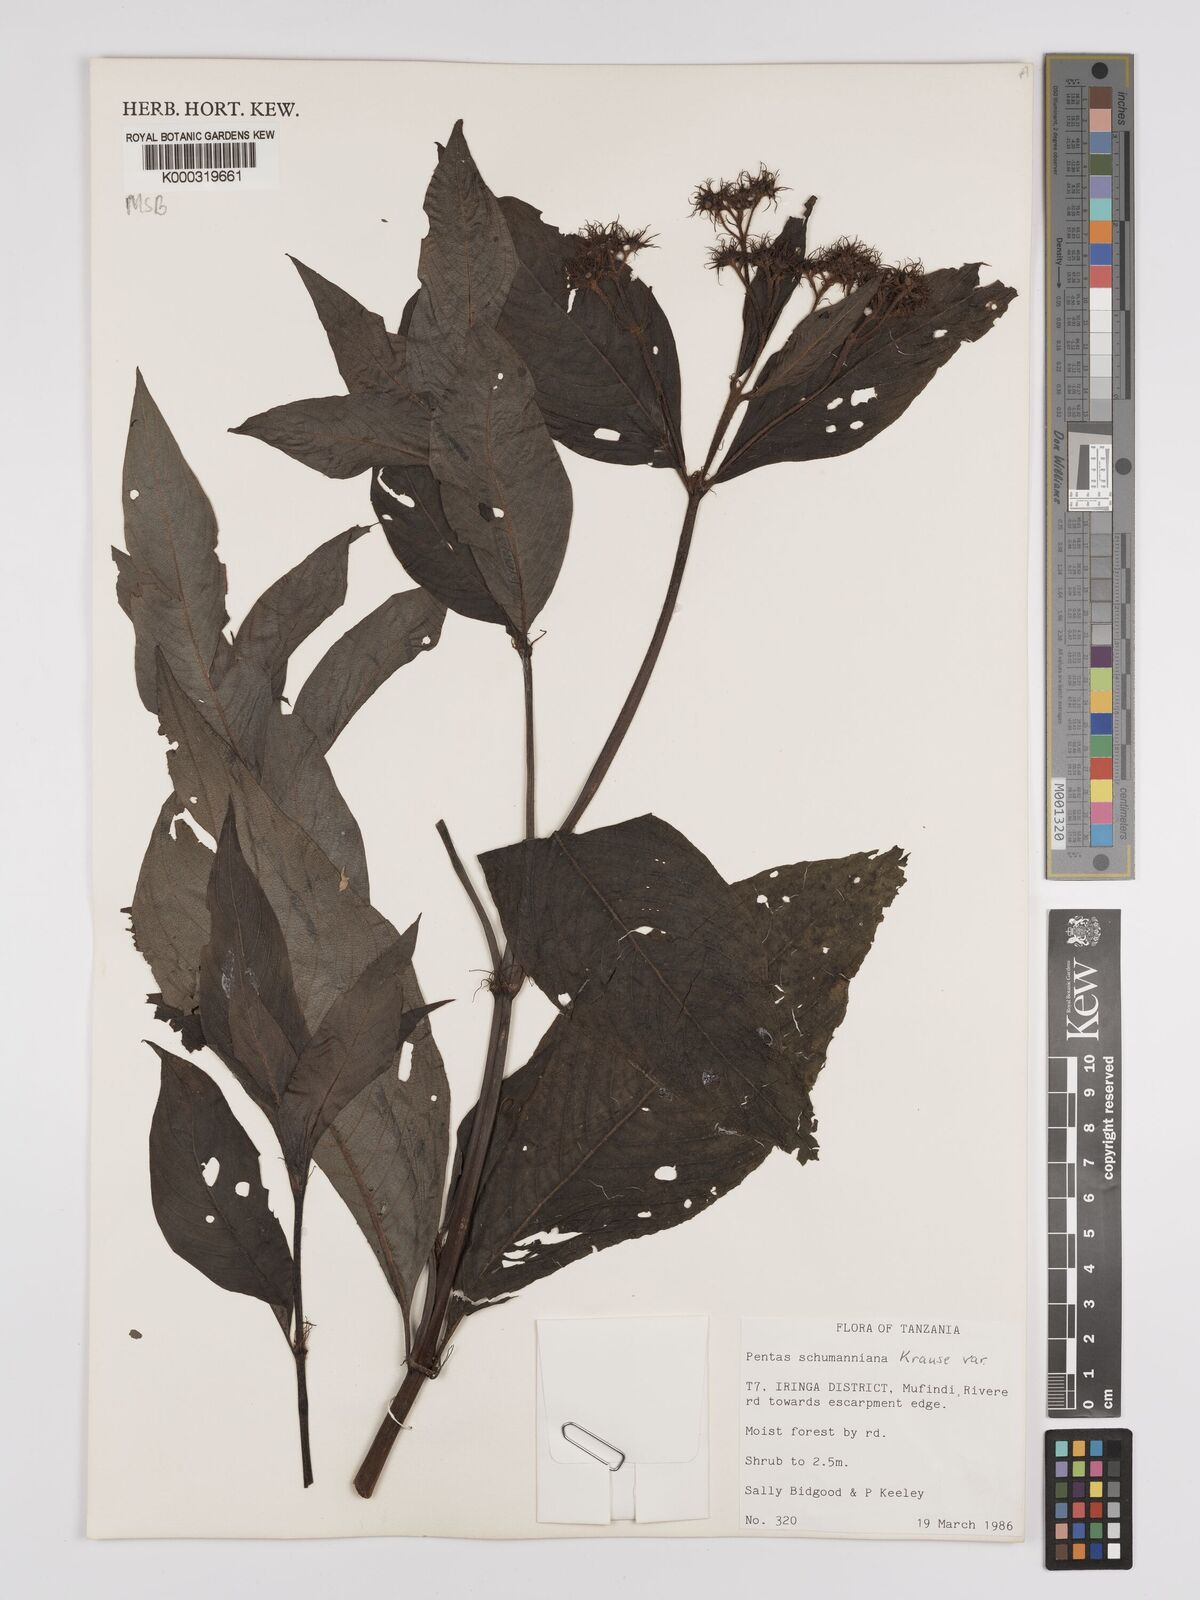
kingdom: Plantae
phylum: Tracheophyta
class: Magnoliopsida
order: Gentianales
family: Rubiaceae
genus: Phyllopentas
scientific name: Phyllopentas schumanniana
